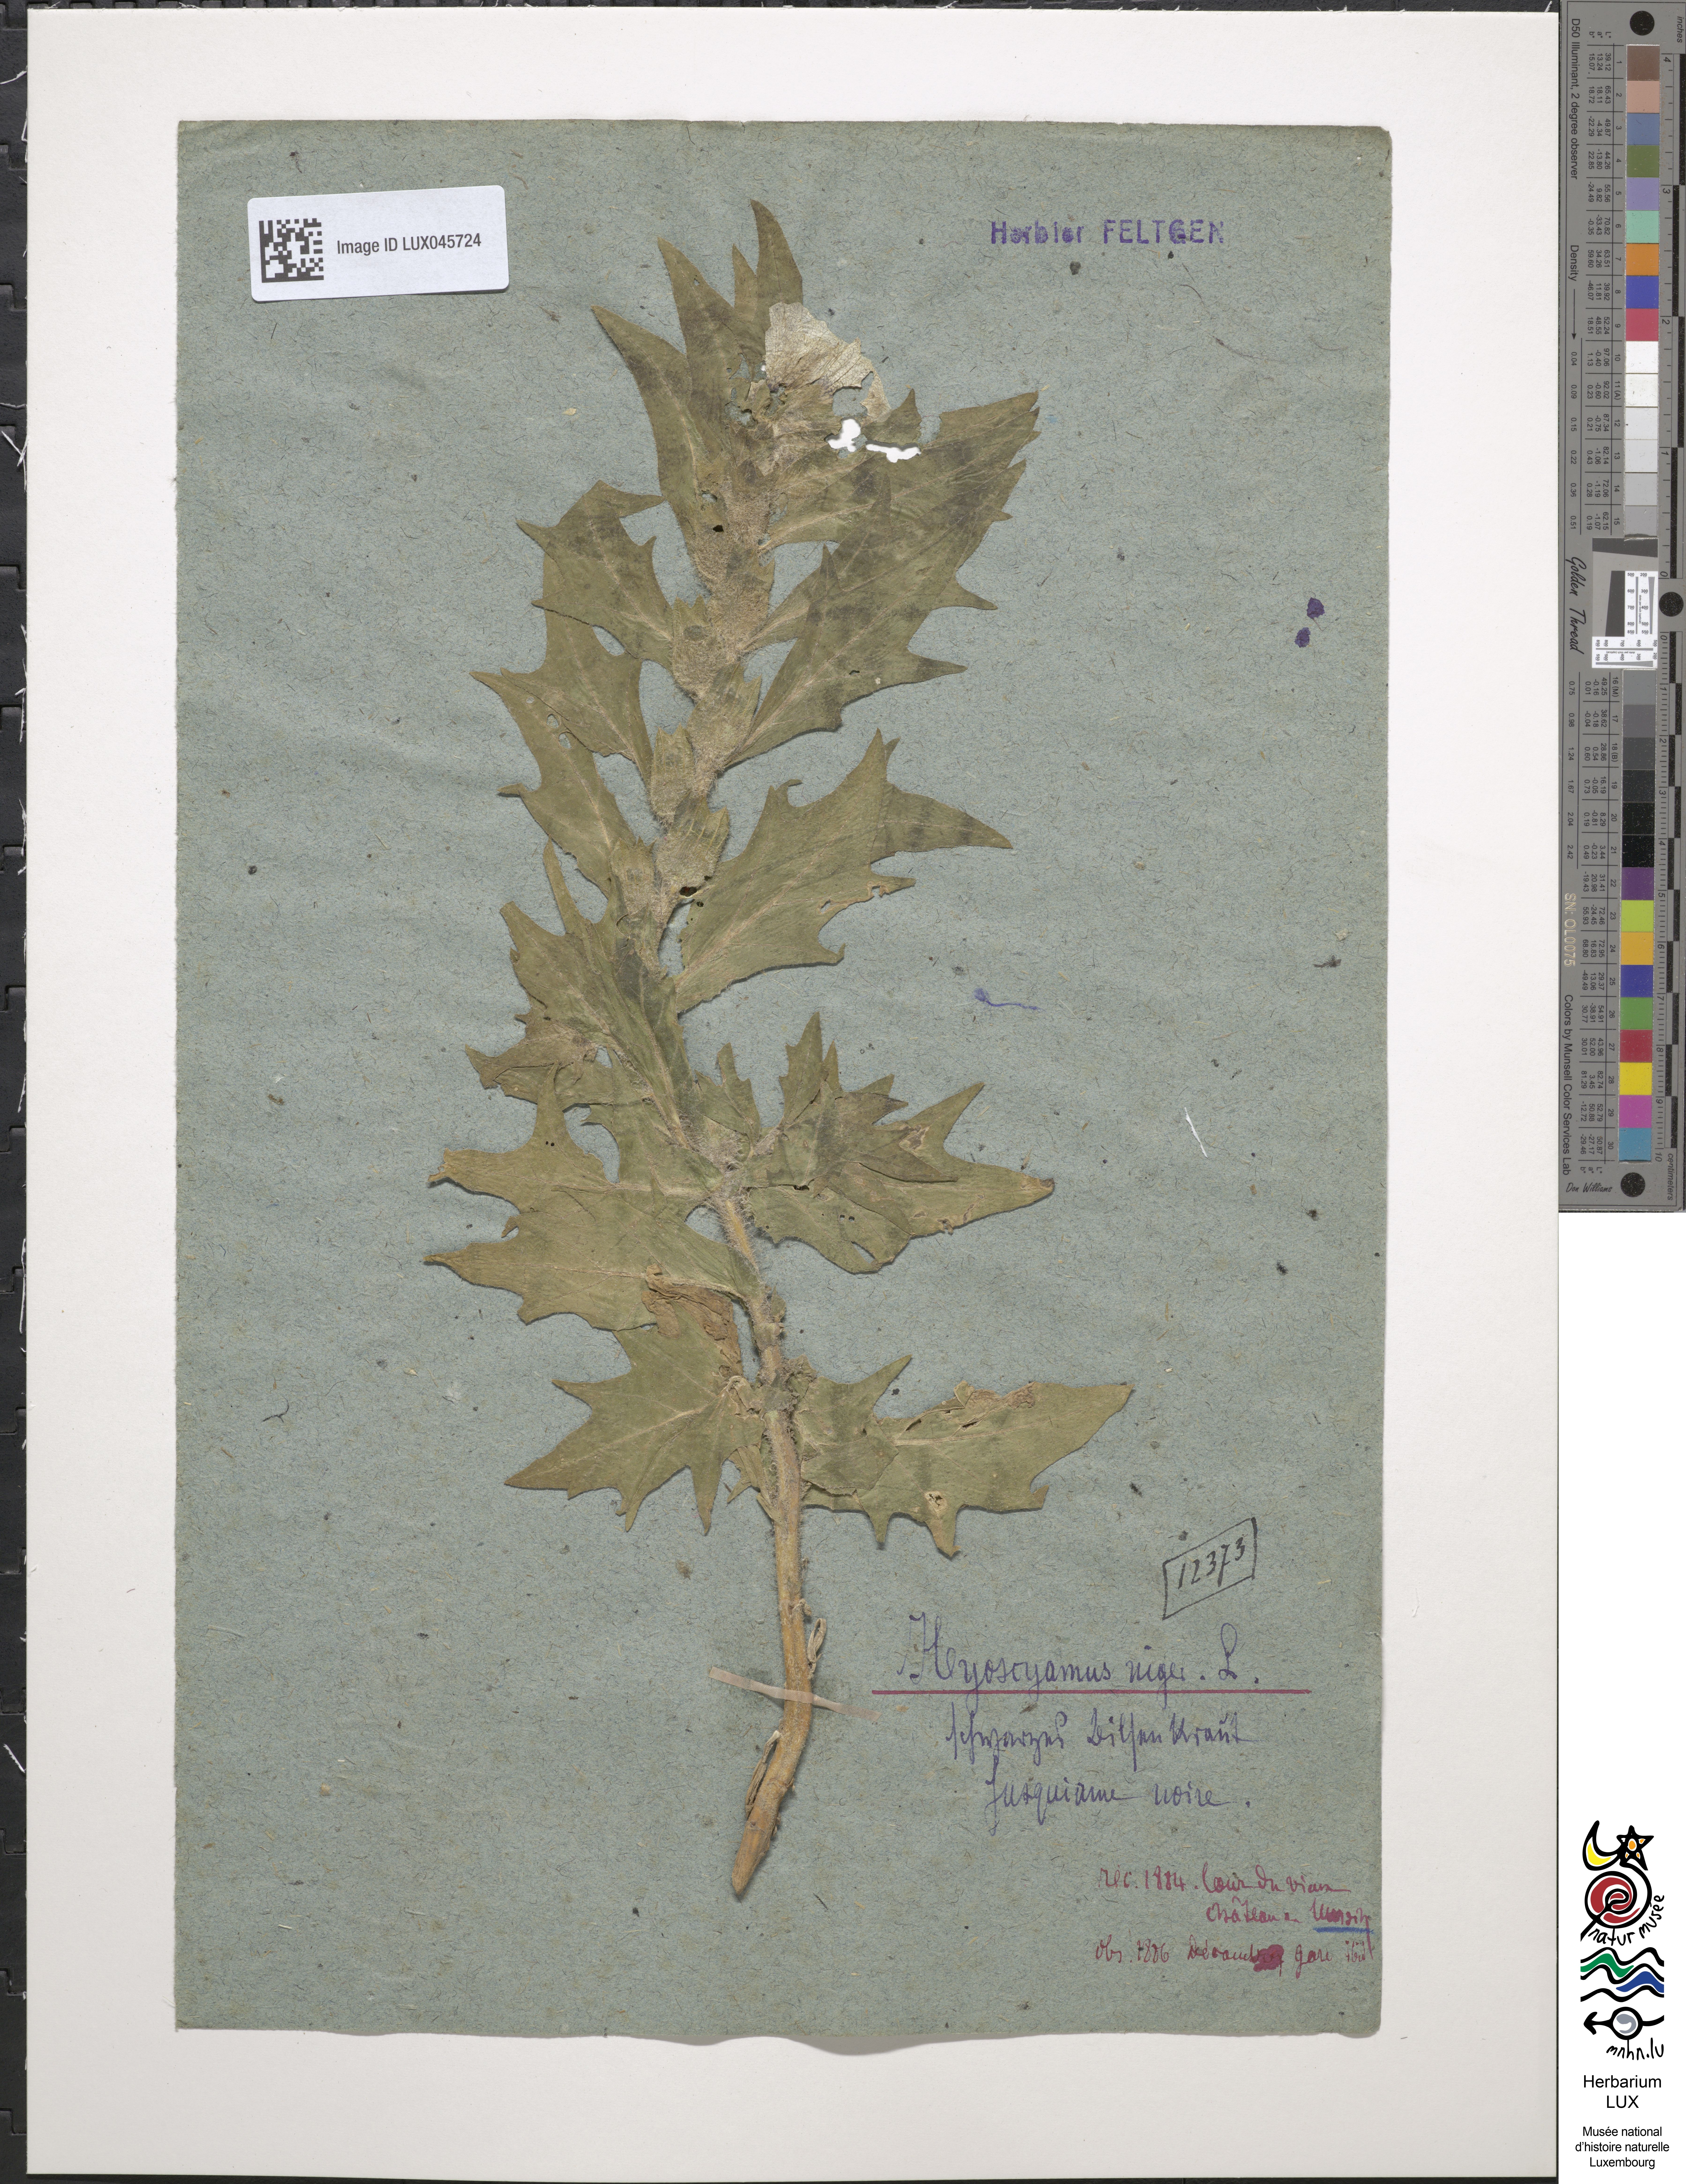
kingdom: Plantae
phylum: Tracheophyta
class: Magnoliopsida
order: Solanales
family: Solanaceae
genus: Hyoscyamus
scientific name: Hyoscyamus niger
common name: Henbane
